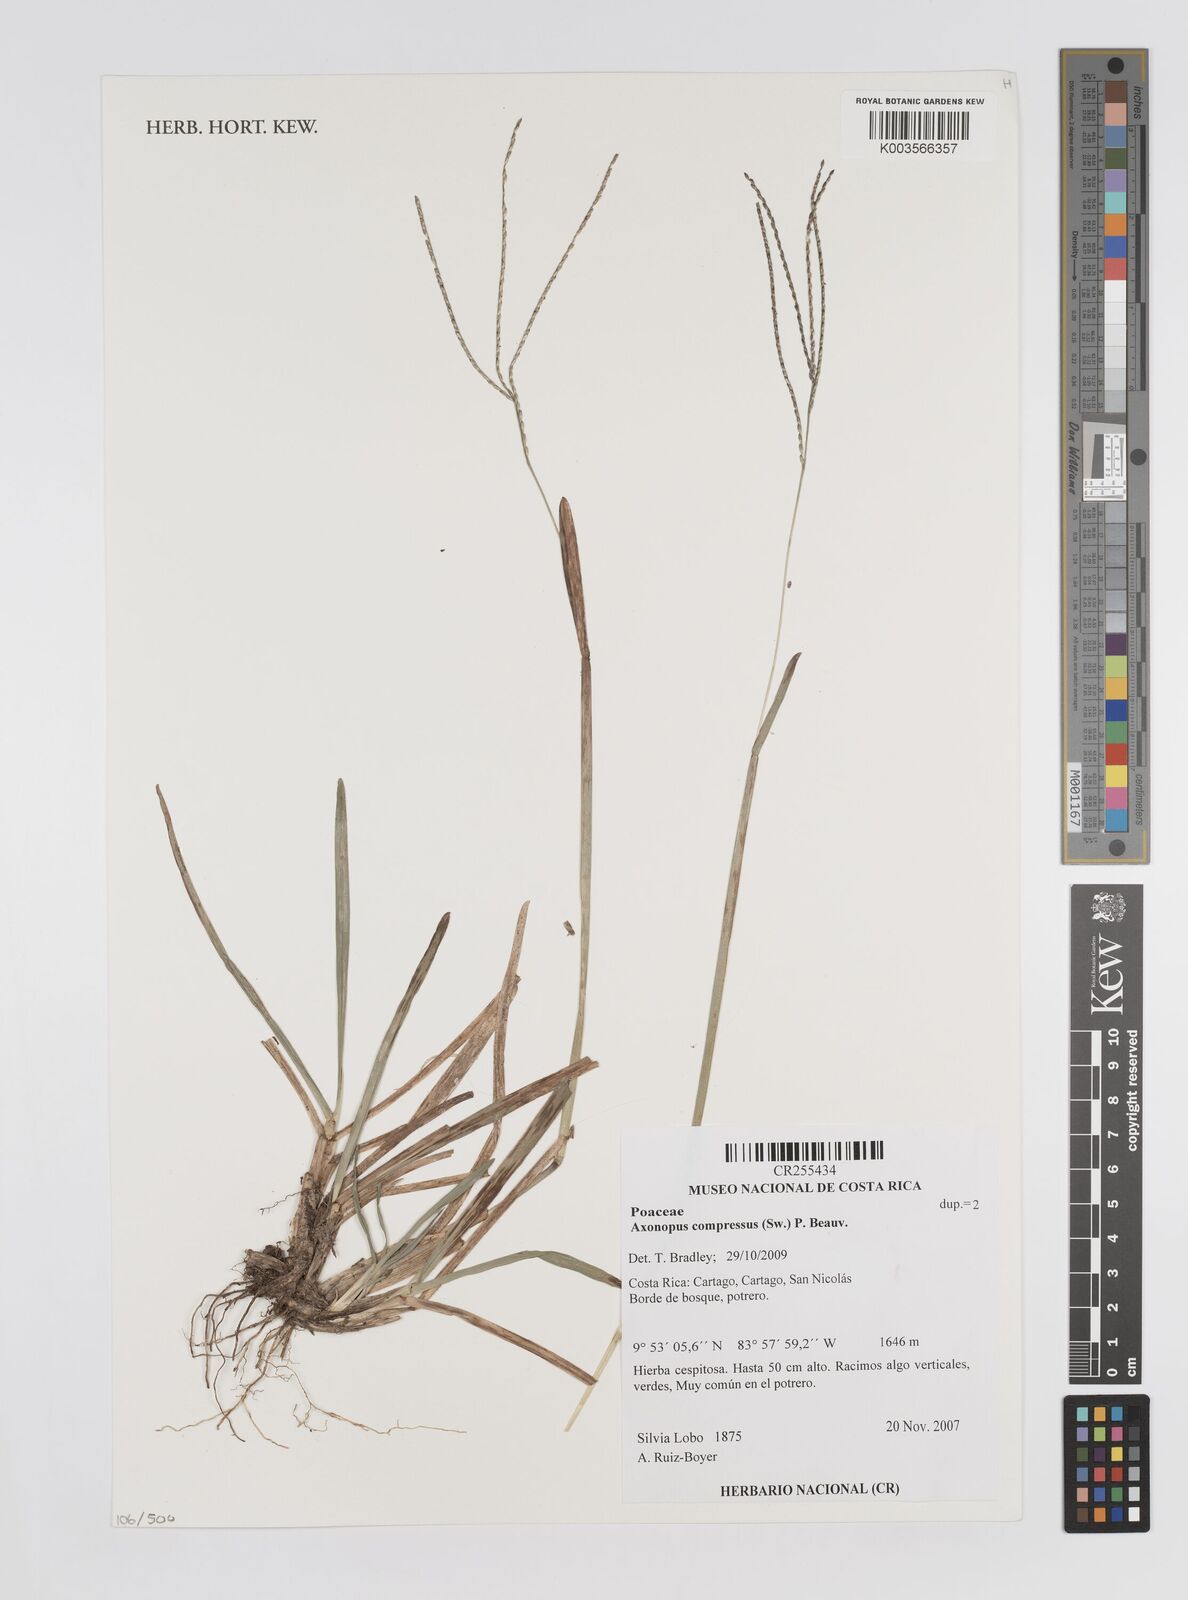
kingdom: Plantae
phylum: Tracheophyta
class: Liliopsida
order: Poales
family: Poaceae
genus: Axonopus
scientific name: Axonopus compressus
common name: American carpet grass
